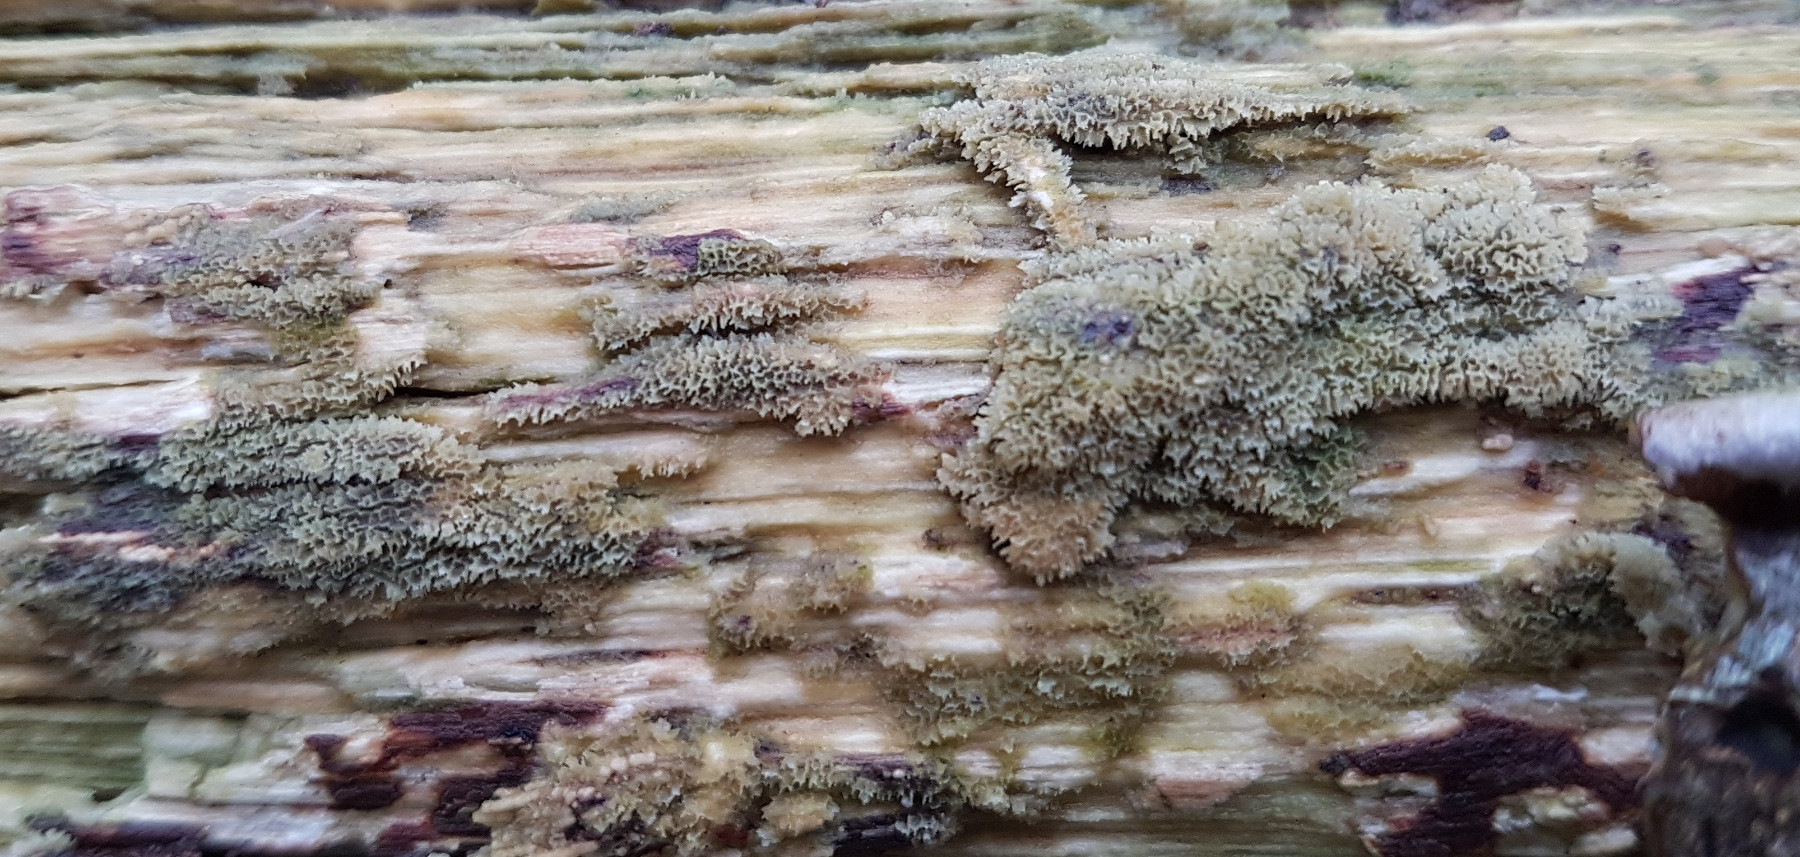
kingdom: Fungi
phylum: Basidiomycota
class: Agaricomycetes
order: Polyporales
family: Meruliaceae
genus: Phlebia
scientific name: Phlebia radiata
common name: stråle-åresvamp
